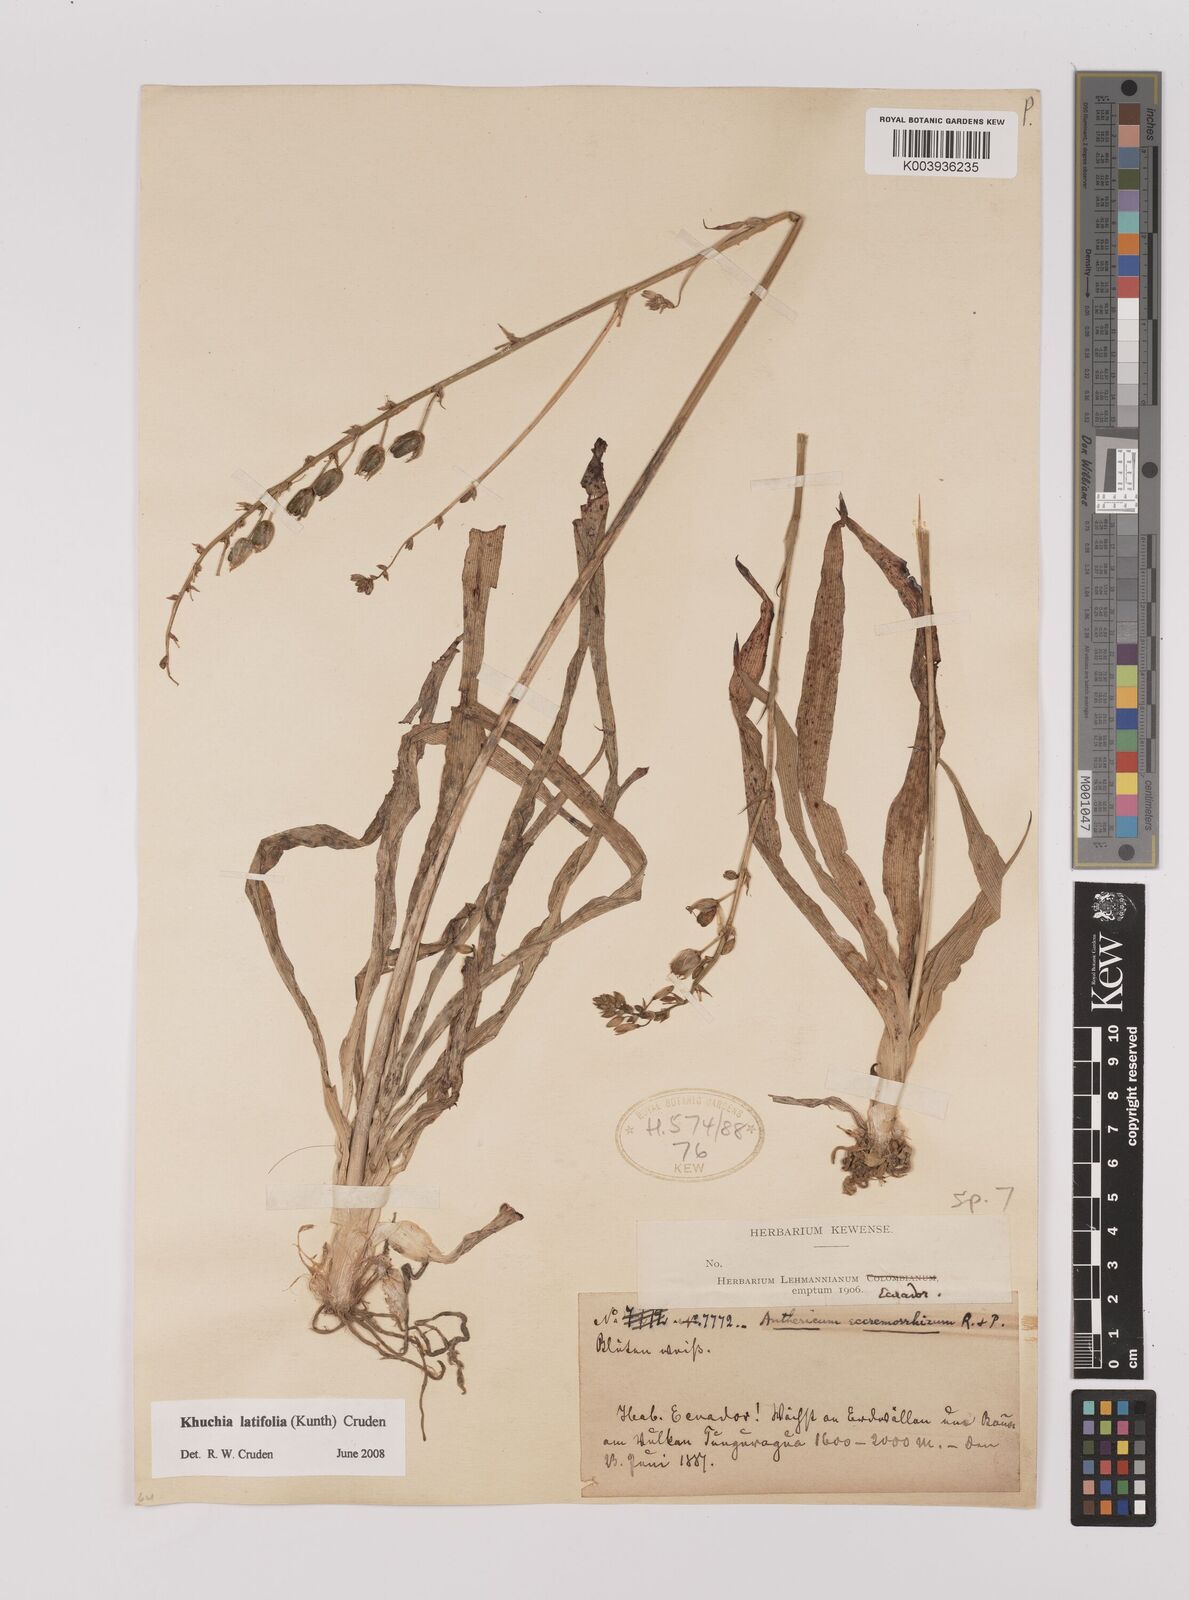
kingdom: Plantae
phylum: Tracheophyta
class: Liliopsida
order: Asparagales
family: Asparagaceae
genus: Echeandia
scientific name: Echeandia
